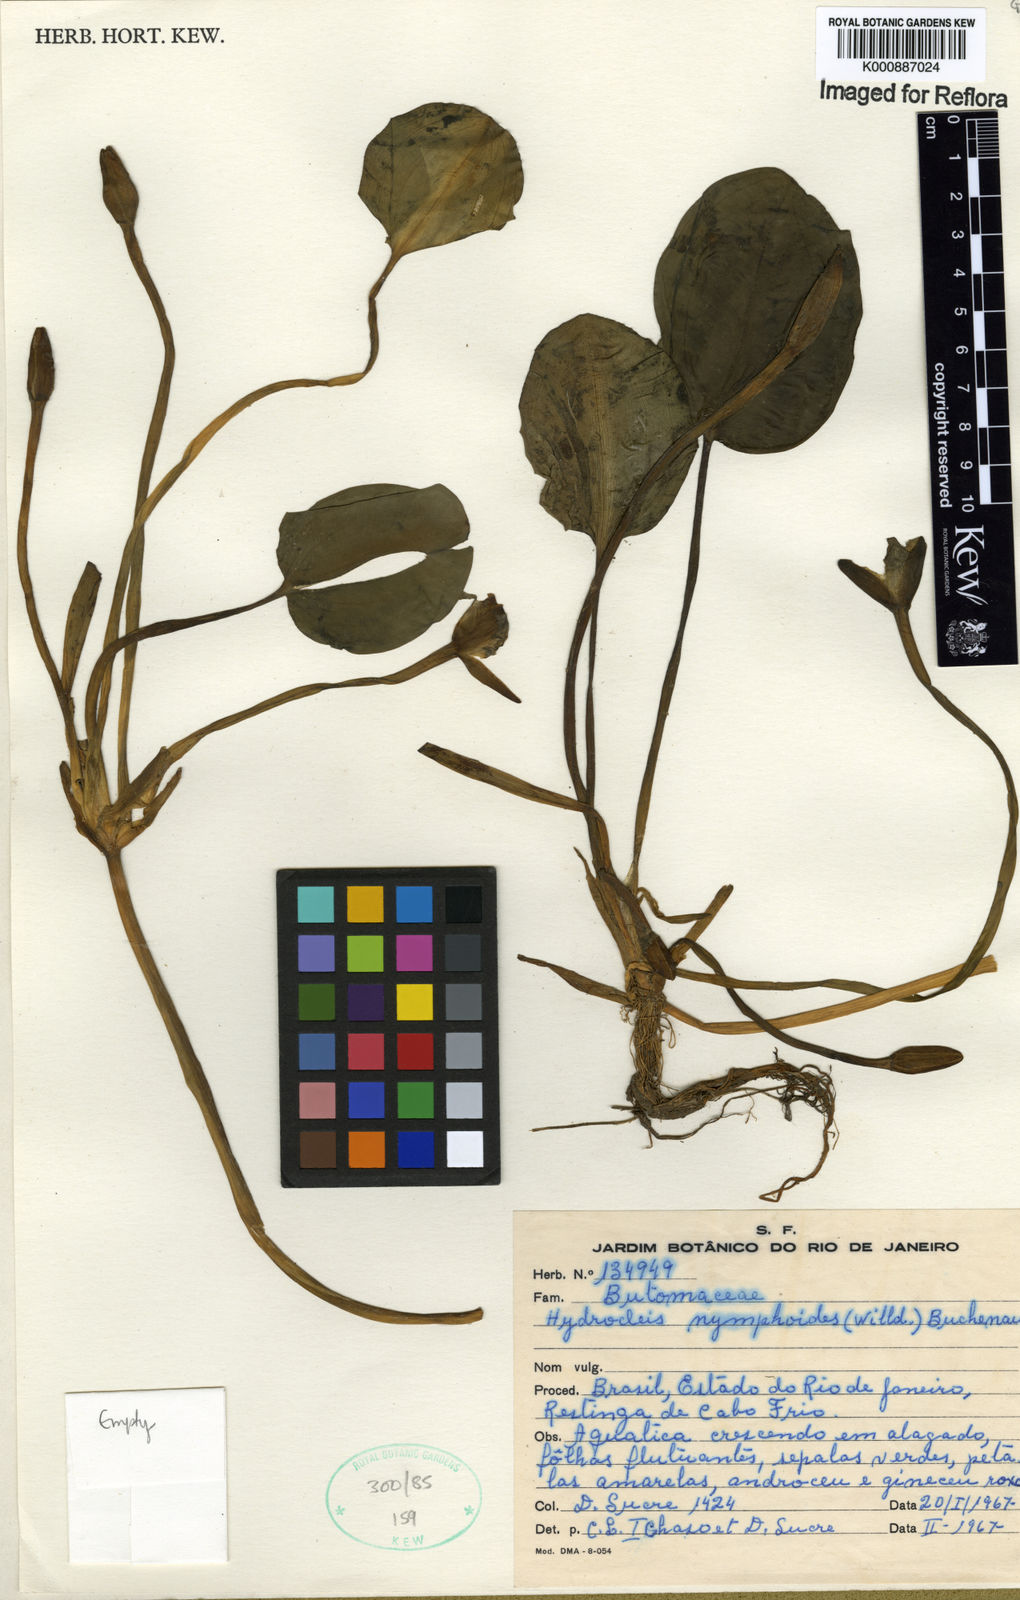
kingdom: Plantae
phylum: Tracheophyta
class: Liliopsida
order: Alismatales
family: Alismataceae
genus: Hydrocleys
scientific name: Hydrocleys nymphoides
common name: Water-poppy
